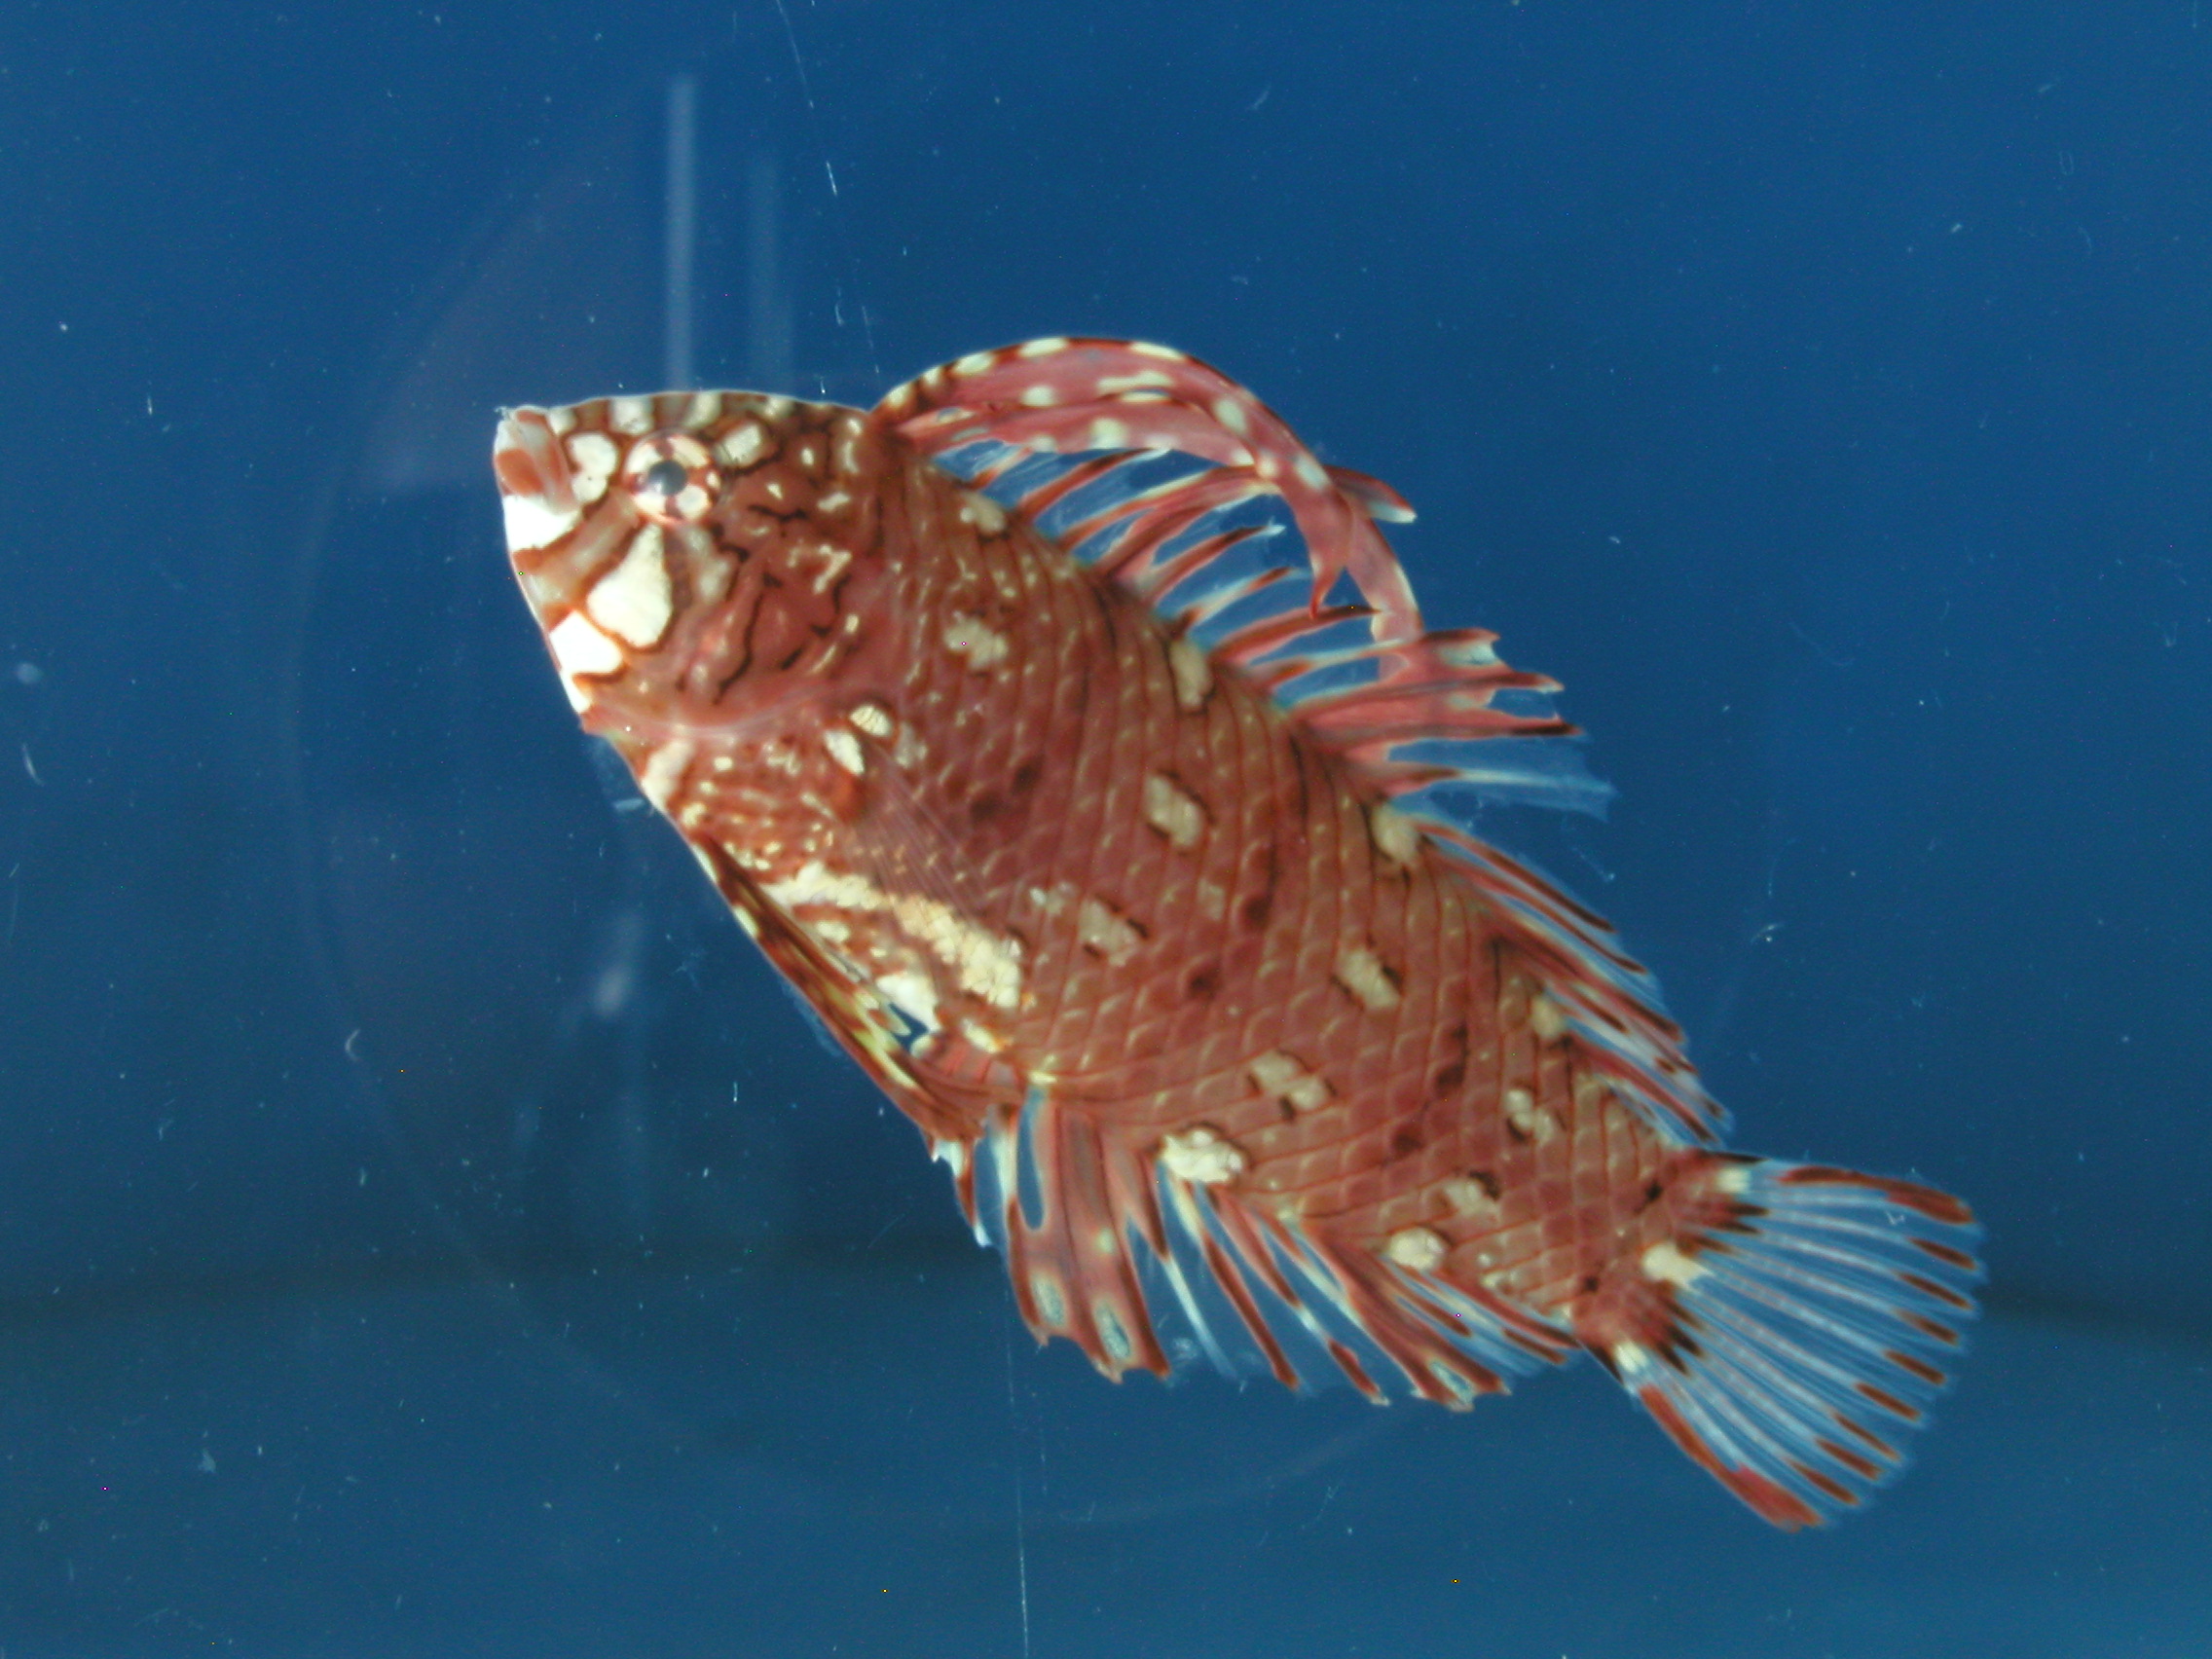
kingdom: Animalia
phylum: Chordata
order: Perciformes
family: Labridae
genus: Novaculichthys
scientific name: Novaculichthys taeniourus
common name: Rockmover wrasse
